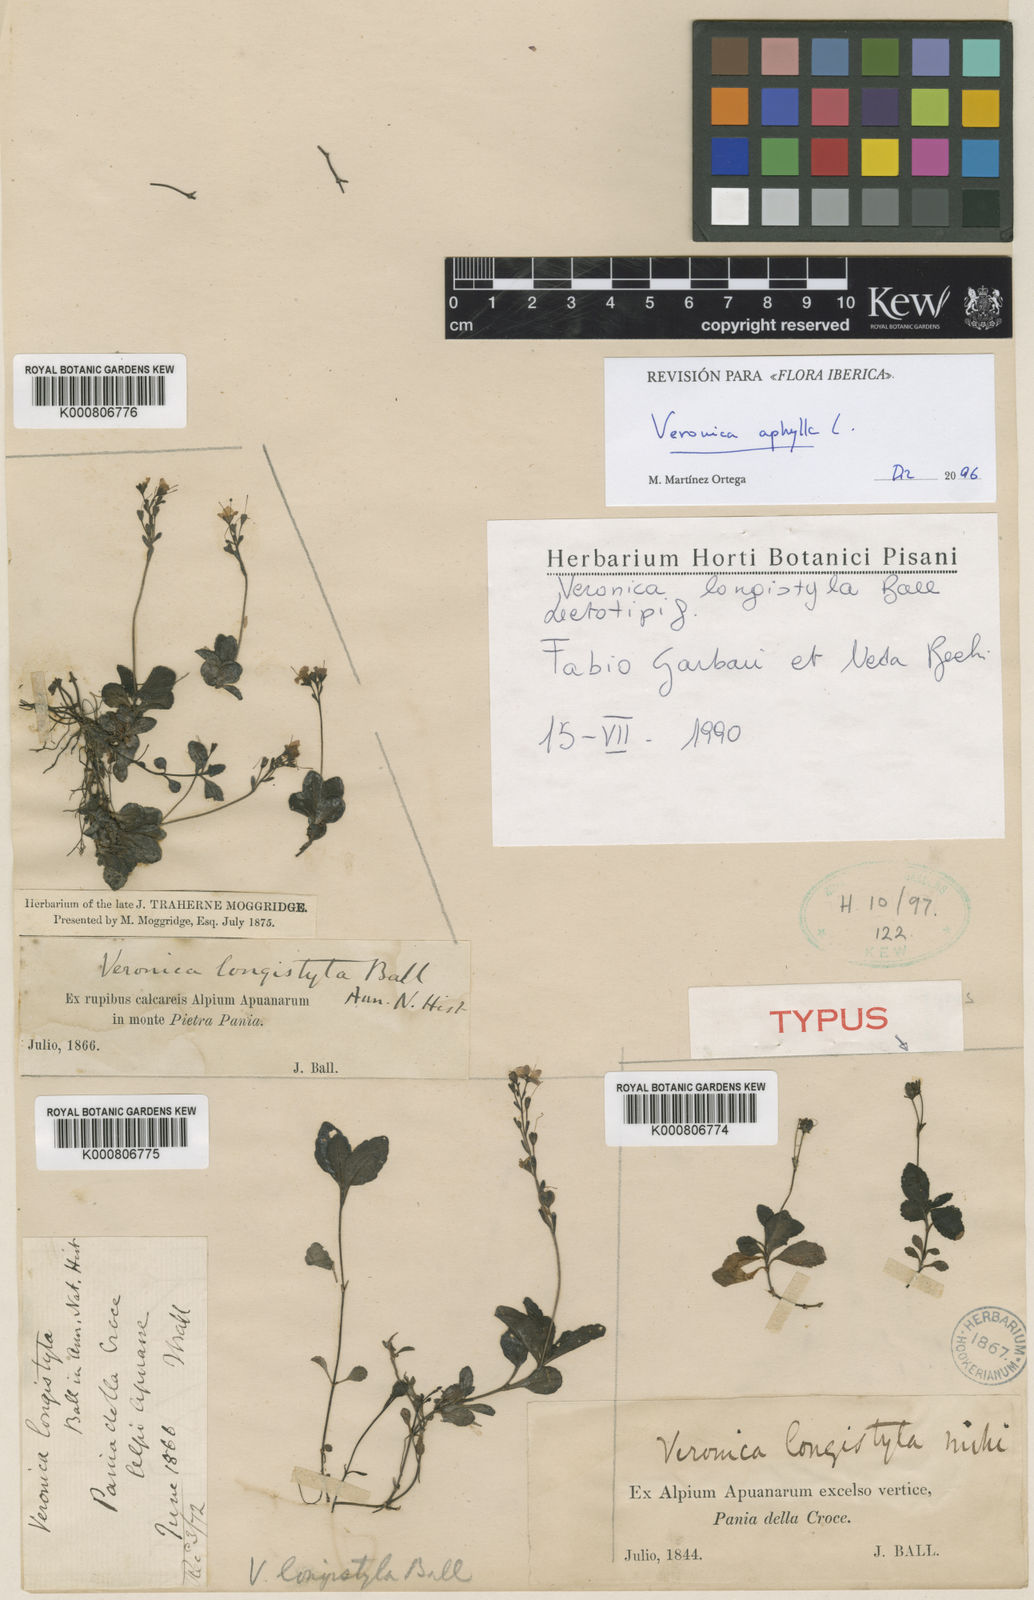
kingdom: Plantae
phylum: Tracheophyta
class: Magnoliopsida
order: Lamiales
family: Plantaginaceae
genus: Veronica
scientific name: Veronica aphylla
